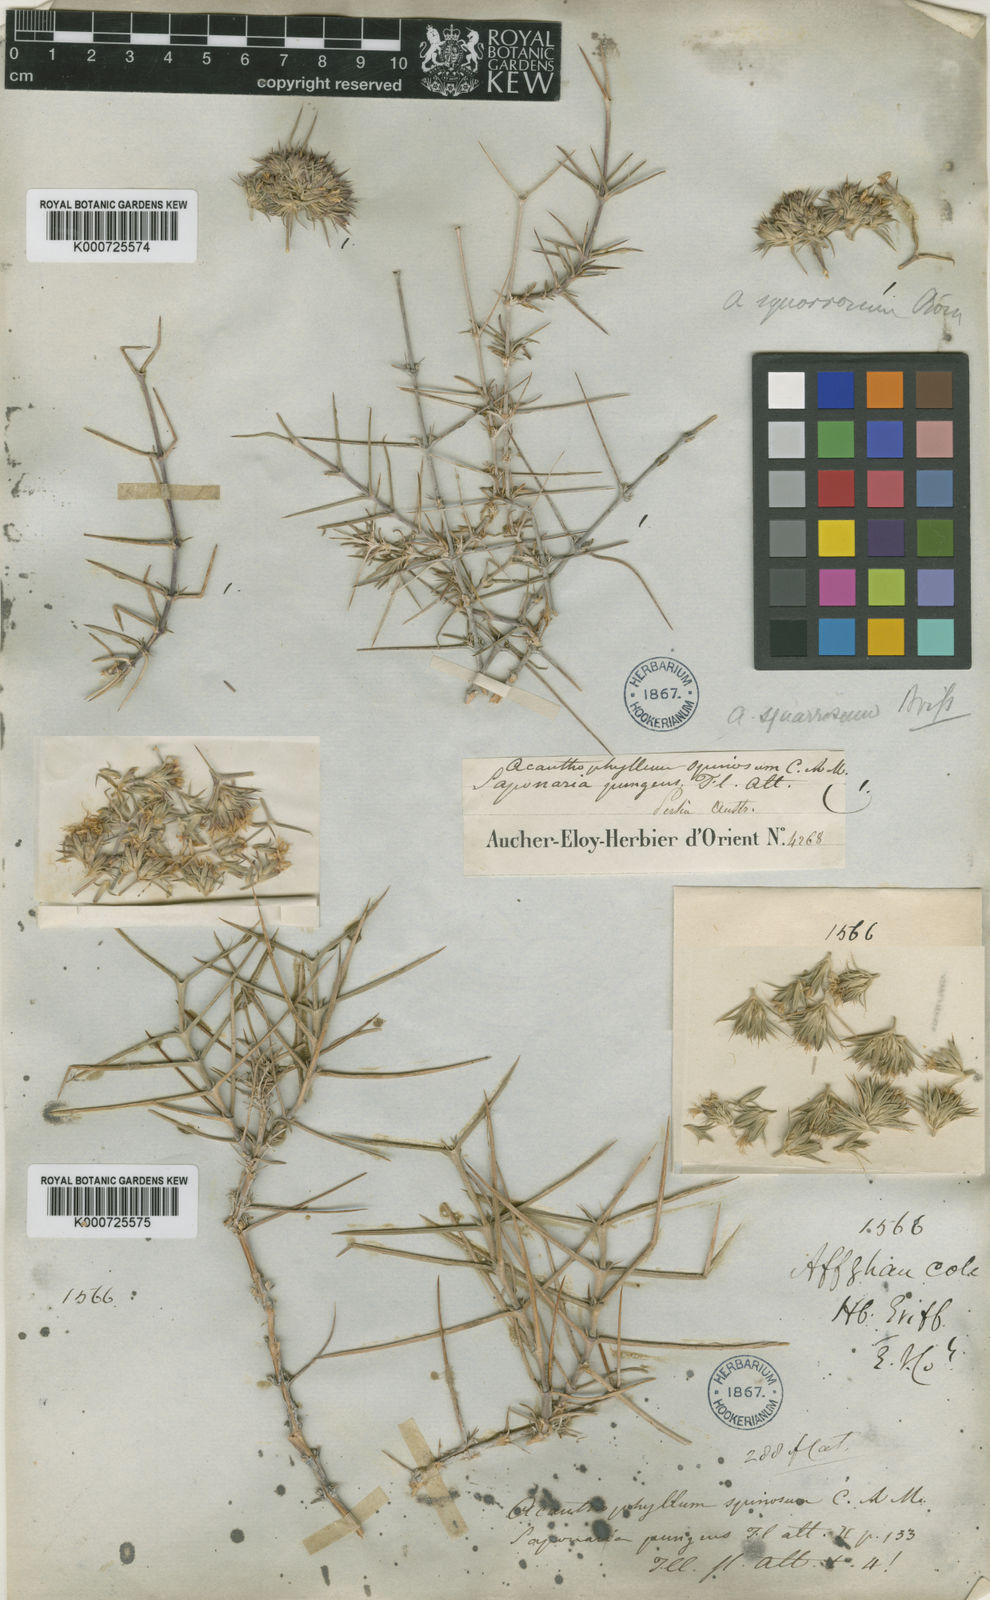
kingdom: Plantae
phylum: Tracheophyta
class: Magnoliopsida
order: Caryophyllales
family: Caryophyllaceae
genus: Acanthophyllum
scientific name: Acanthophyllum squarrosum
